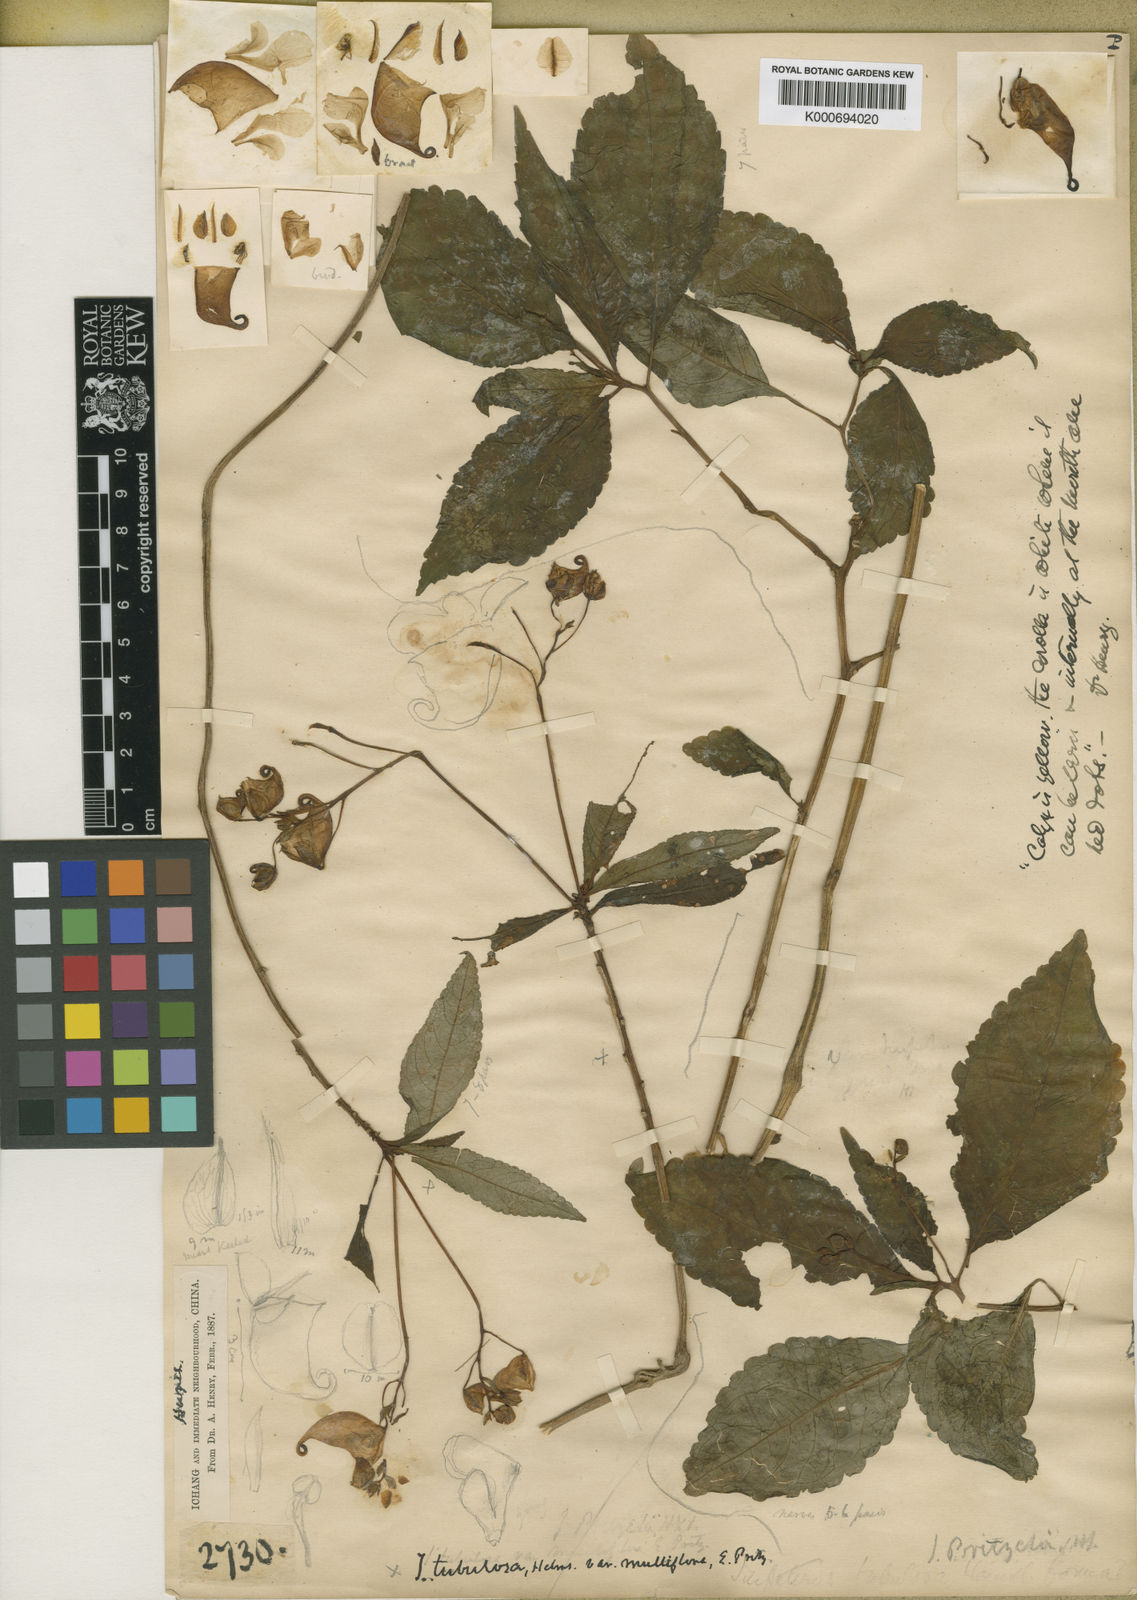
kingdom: Plantae
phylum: Tracheophyta
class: Magnoliopsida
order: Ericales
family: Balsaminaceae
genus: Impatiens
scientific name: Impatiens pritzelii
